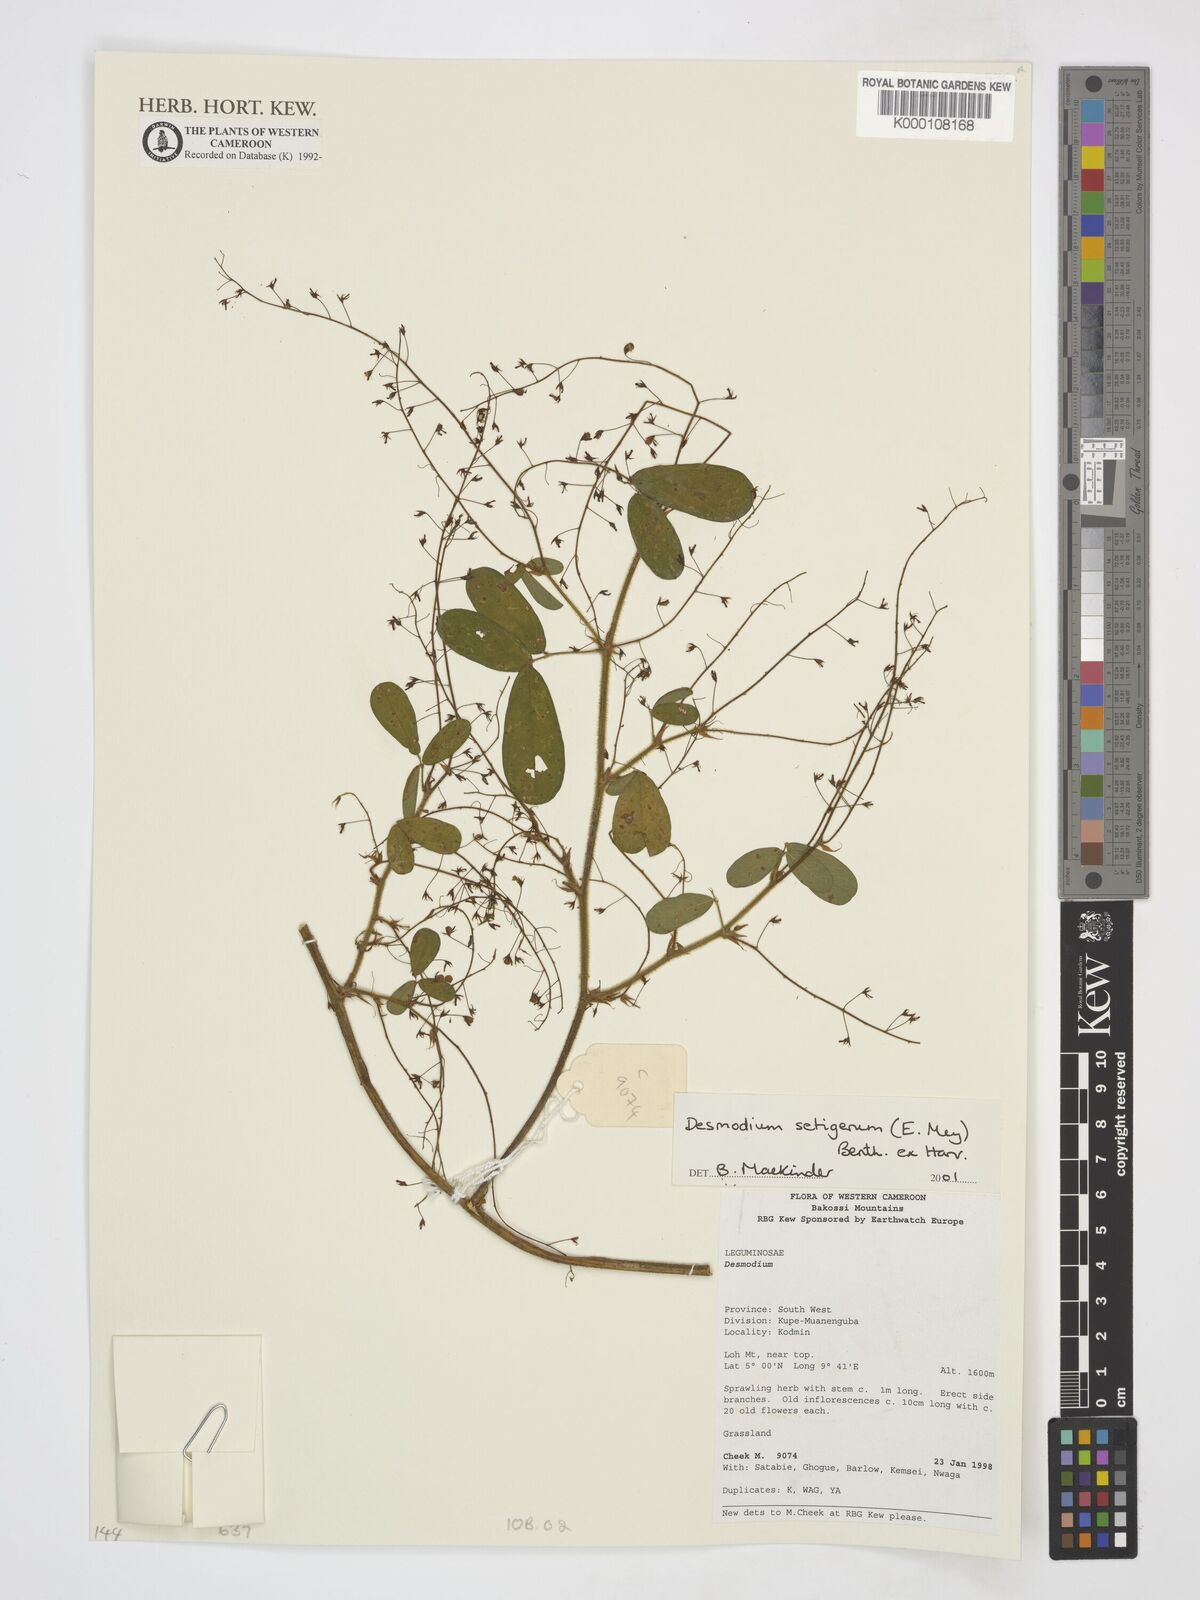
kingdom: Plantae
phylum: Tracheophyta
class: Magnoliopsida
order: Fabales
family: Fabaceae
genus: Grona
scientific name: Grona setigera
